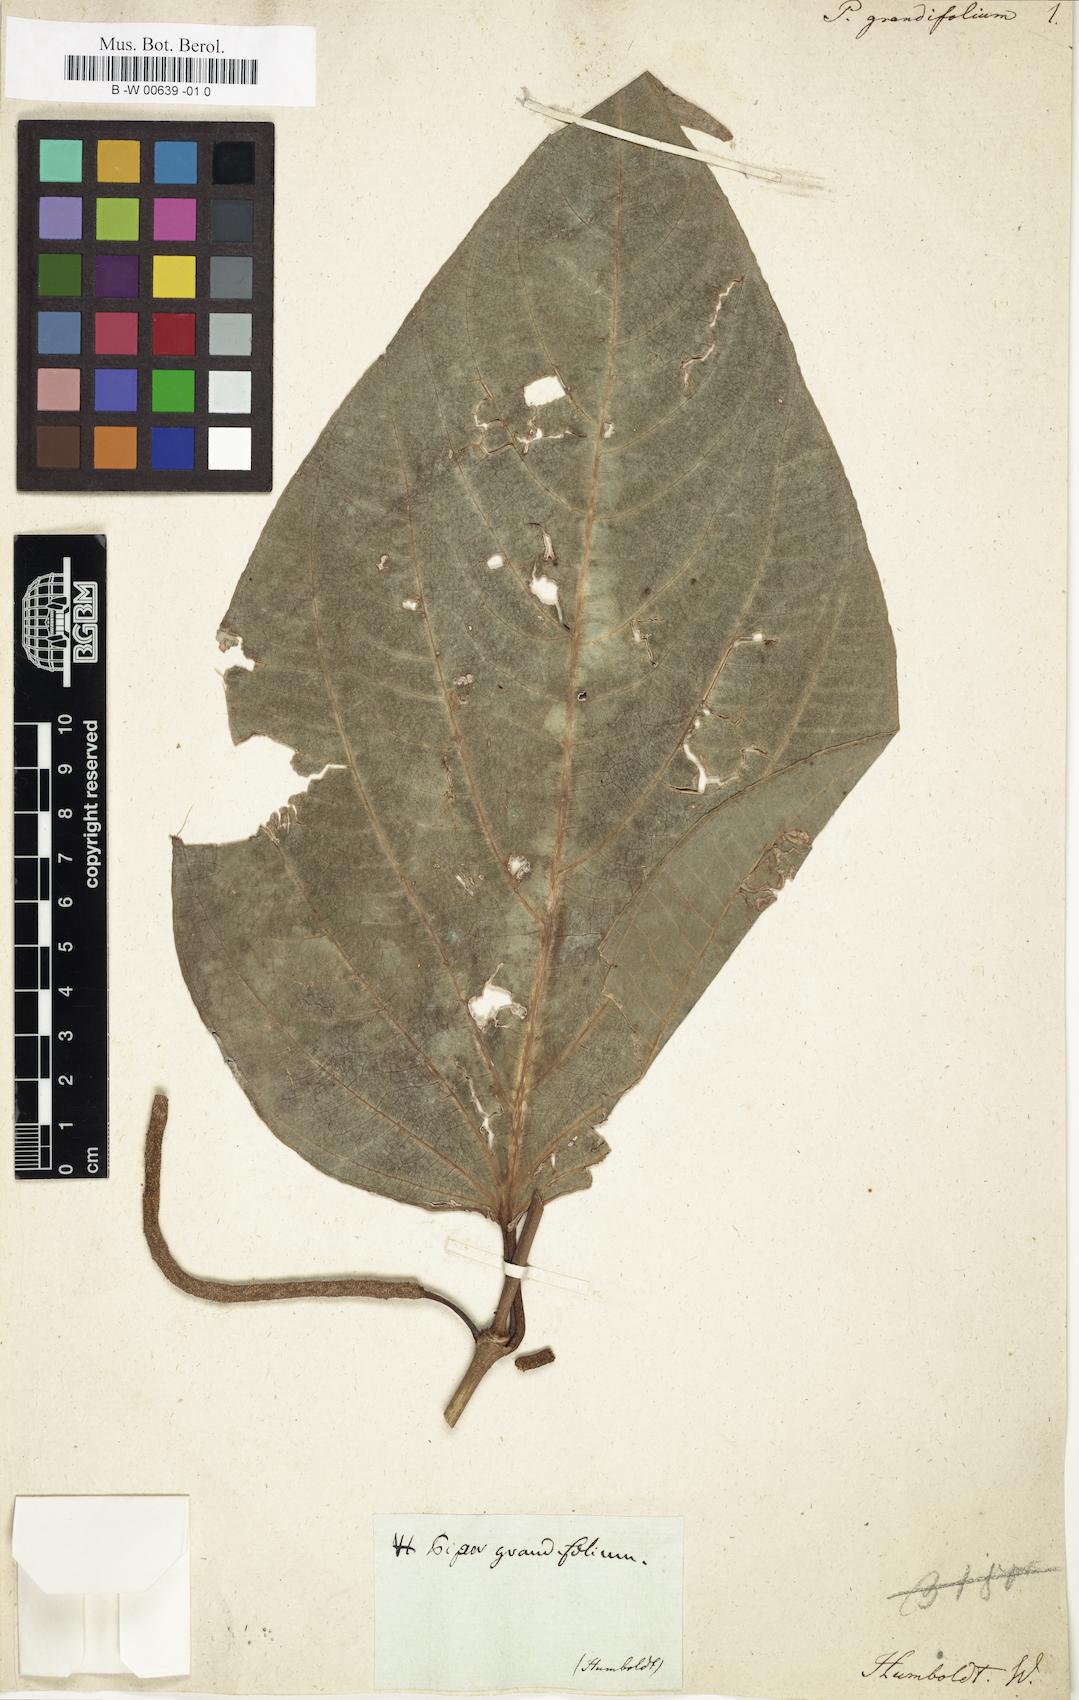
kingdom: Plantae
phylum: Tracheophyta
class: Magnoliopsida
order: Piperales
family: Piperaceae
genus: Piper
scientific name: Piper grande
